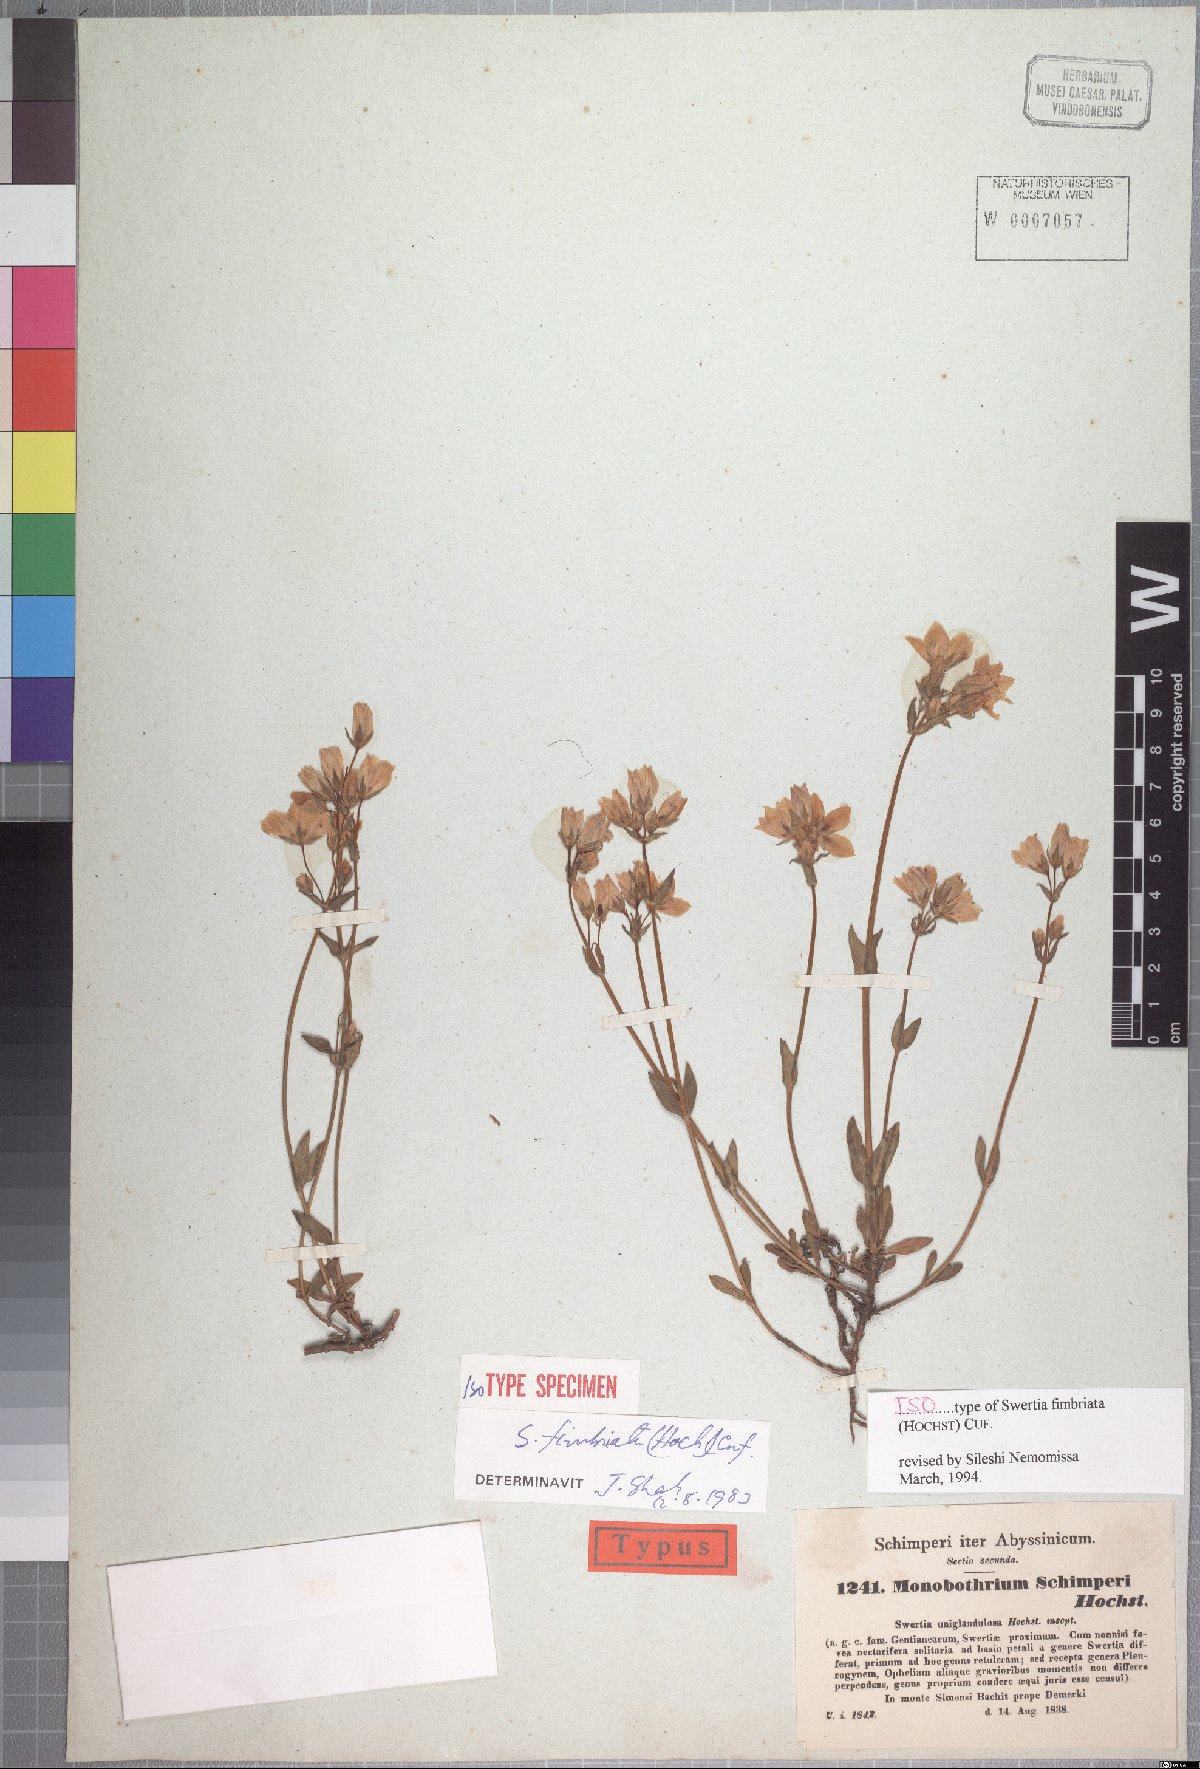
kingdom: Plantae
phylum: Tracheophyta
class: Magnoliopsida
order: Gentianales
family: Gentianaceae
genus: Swertia
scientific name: Swertia schimperi
